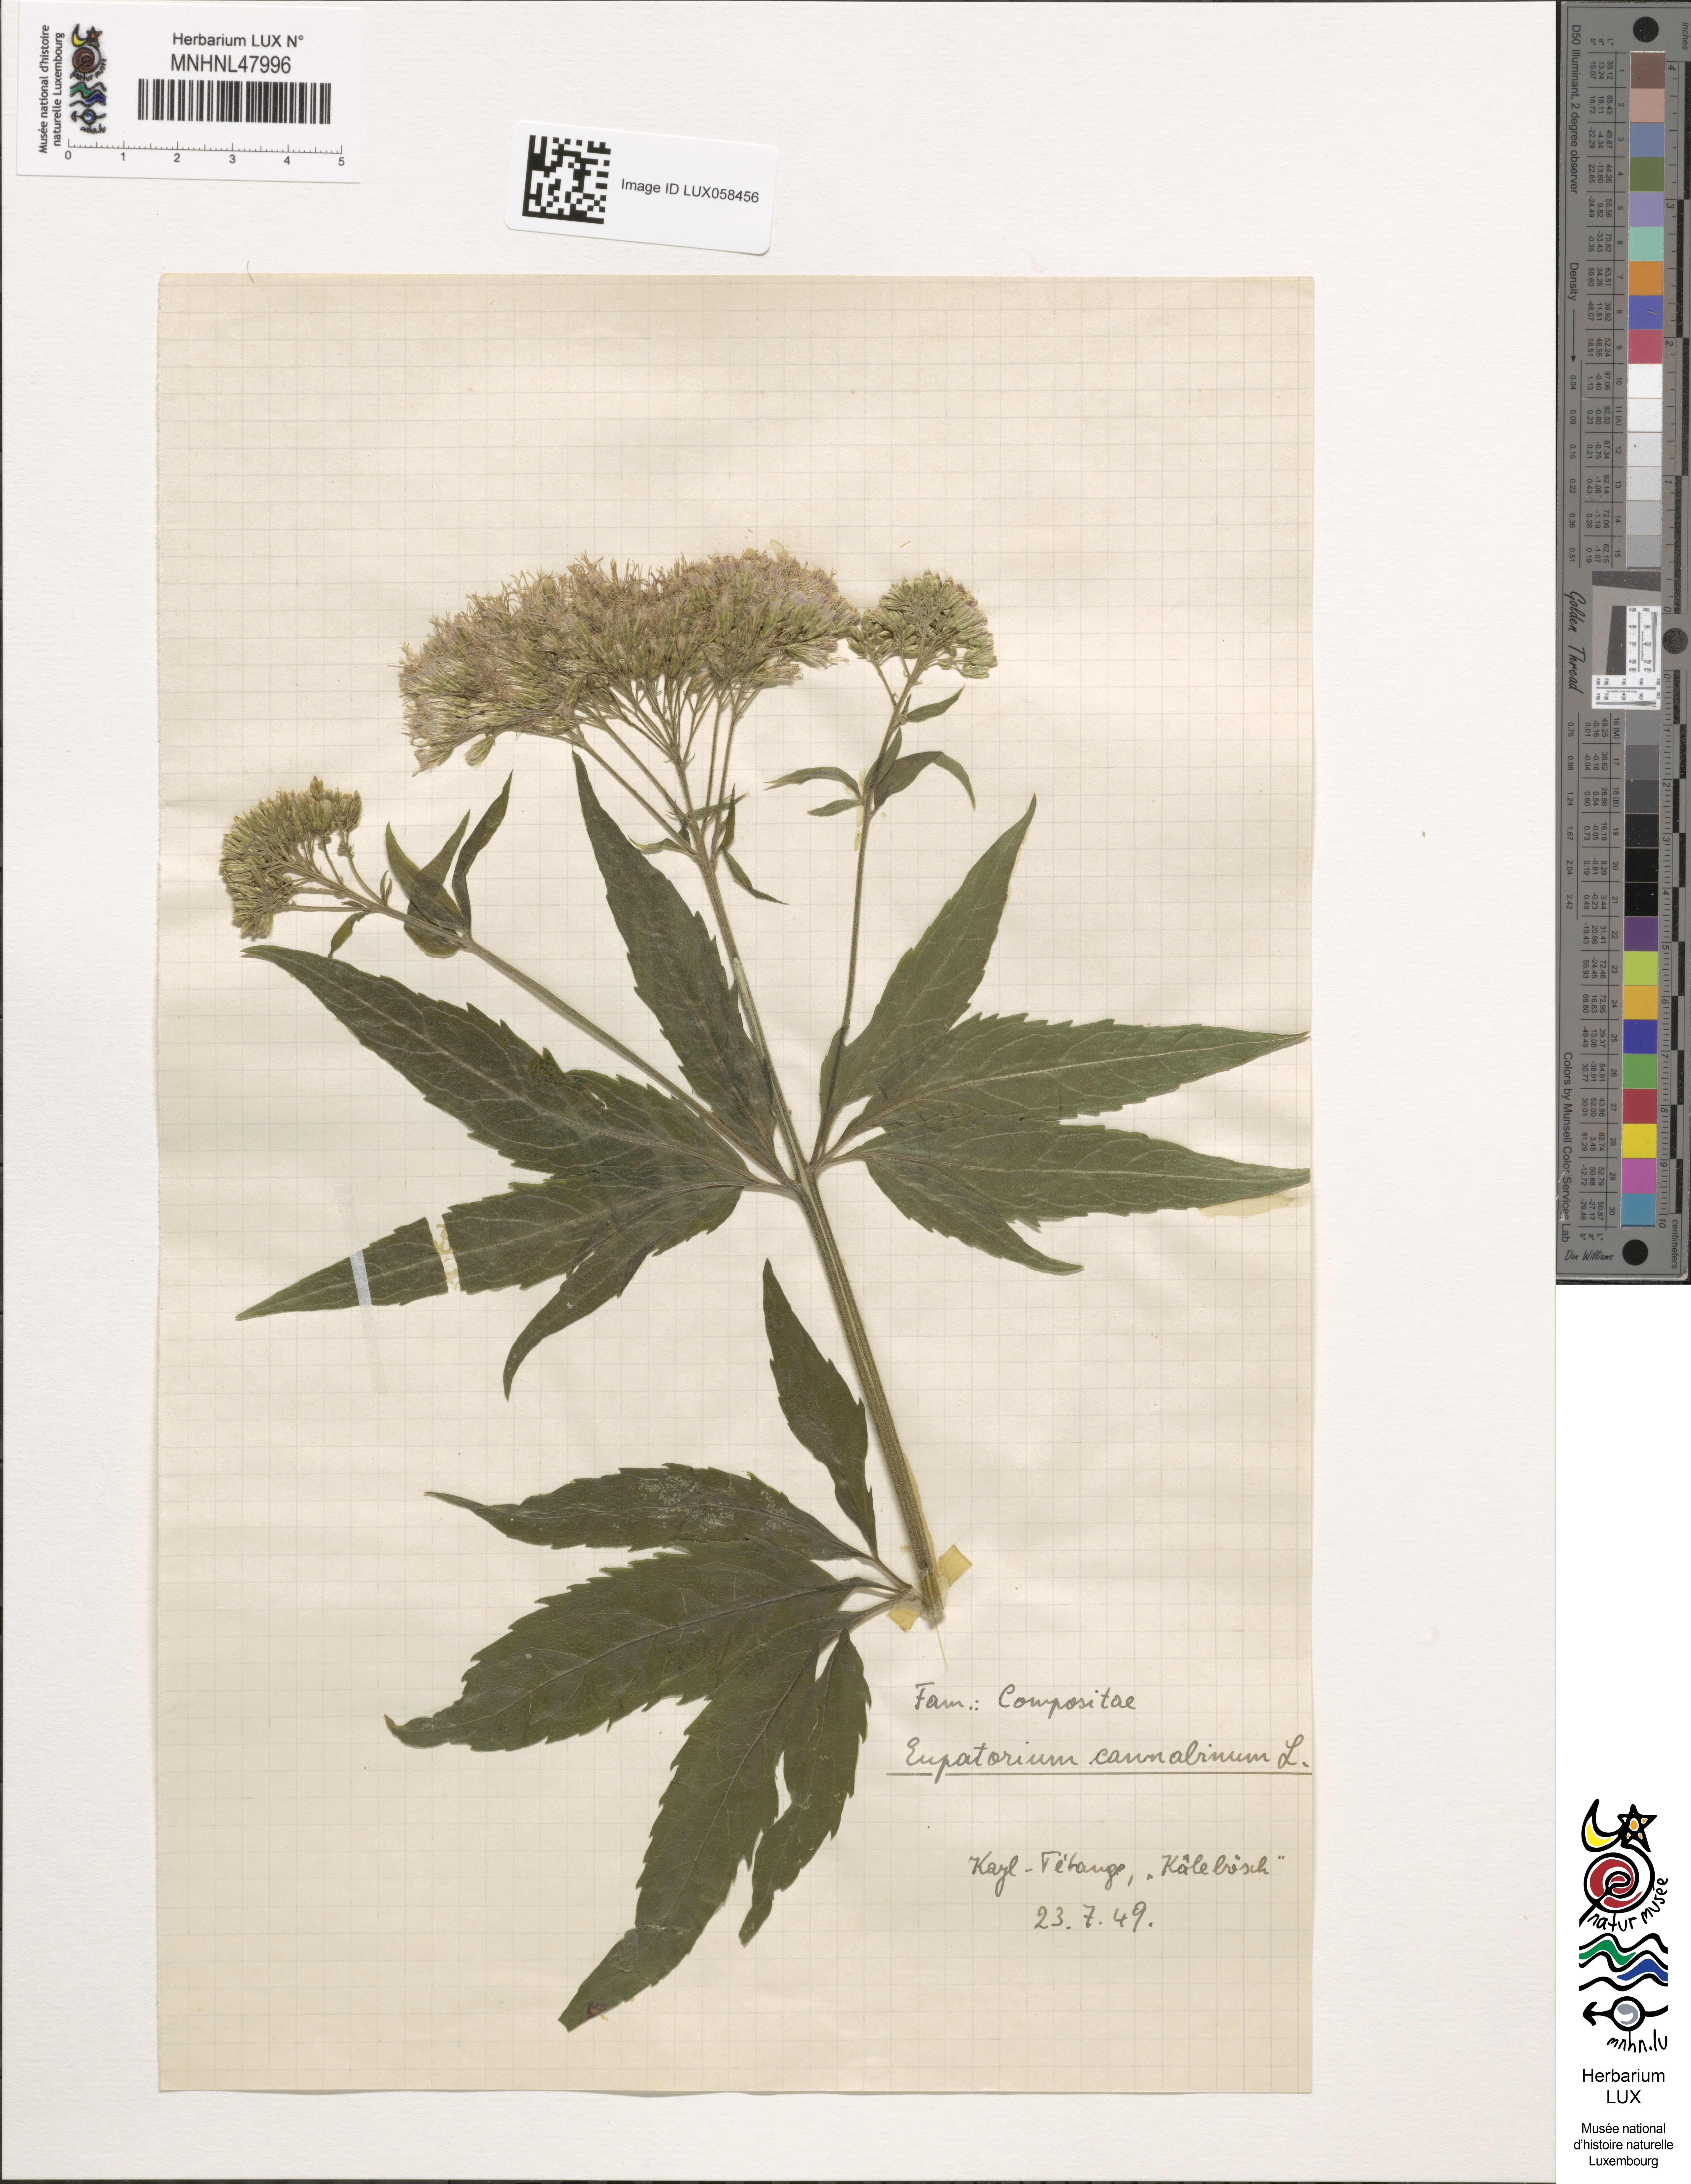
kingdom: Plantae
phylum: Tracheophyta
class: Magnoliopsida
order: Asterales
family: Asteraceae
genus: Eupatorium
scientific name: Eupatorium cannabinum
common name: Hemp-agrimony
